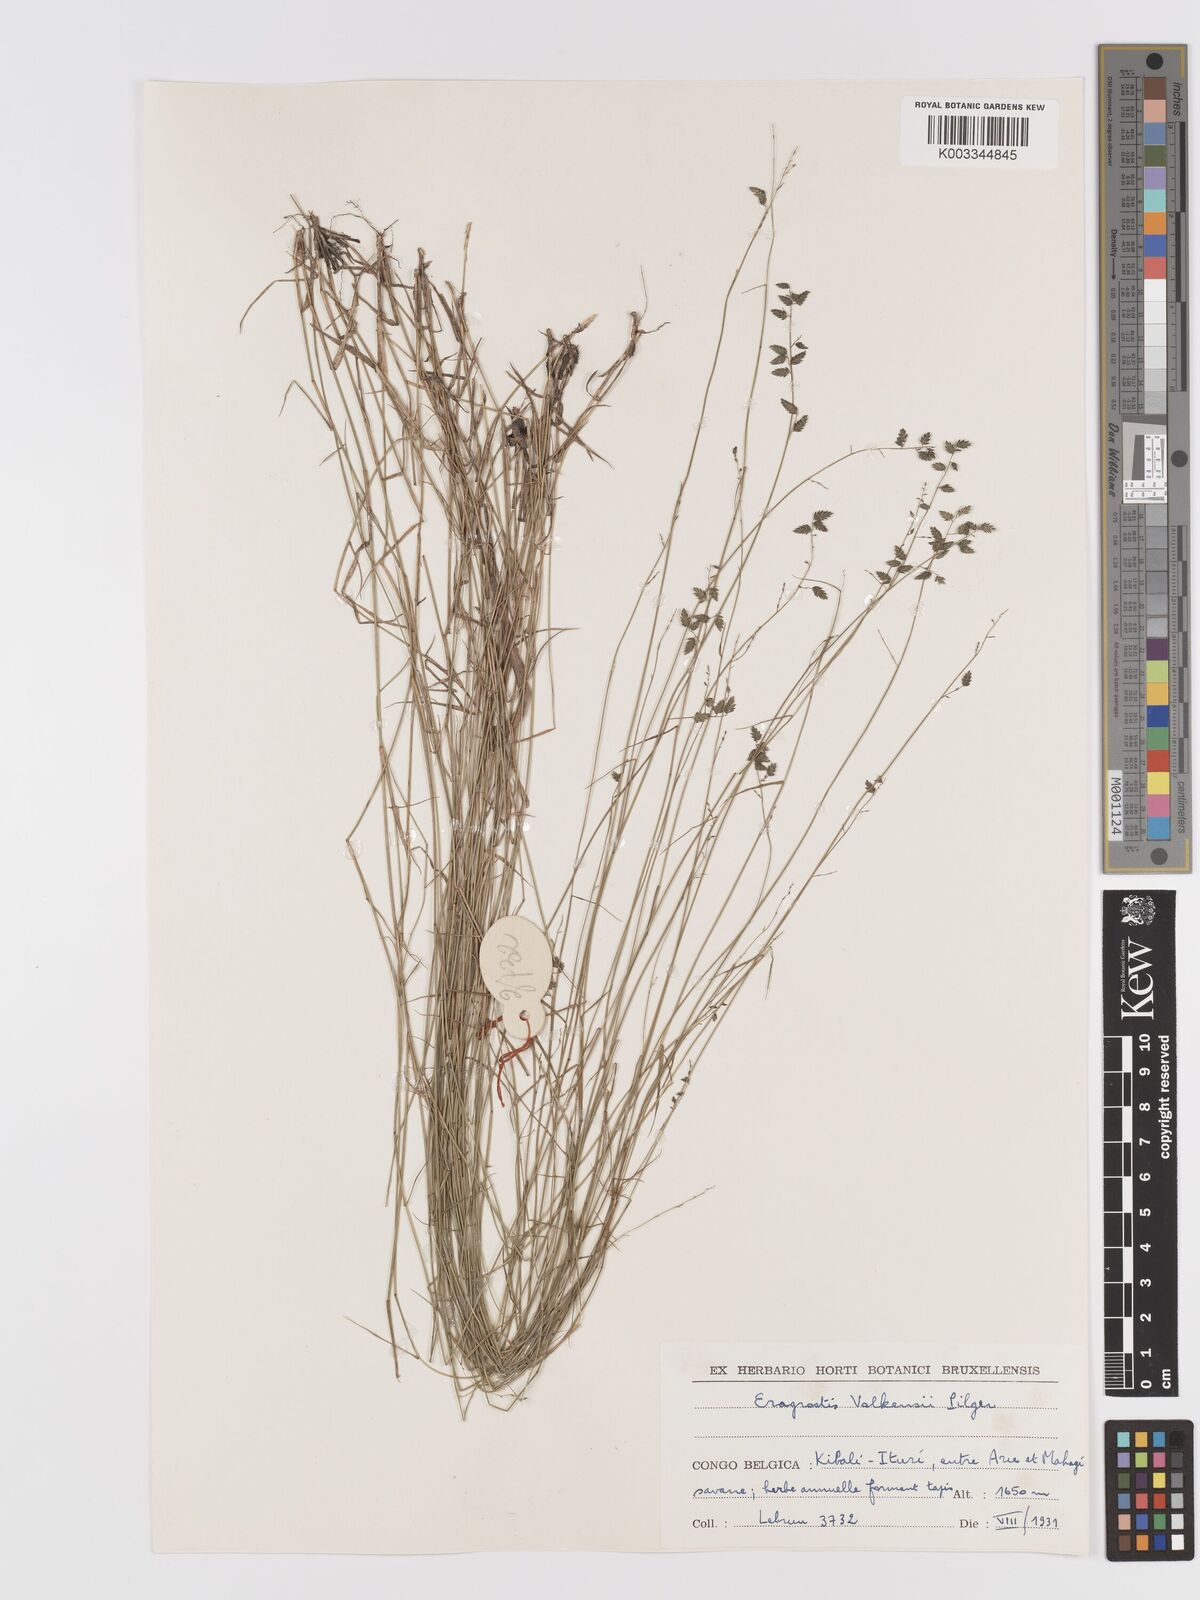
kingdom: Plantae
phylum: Tracheophyta
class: Liliopsida
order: Poales
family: Poaceae
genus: Eragrostis
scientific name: Eragrostis volkensii
